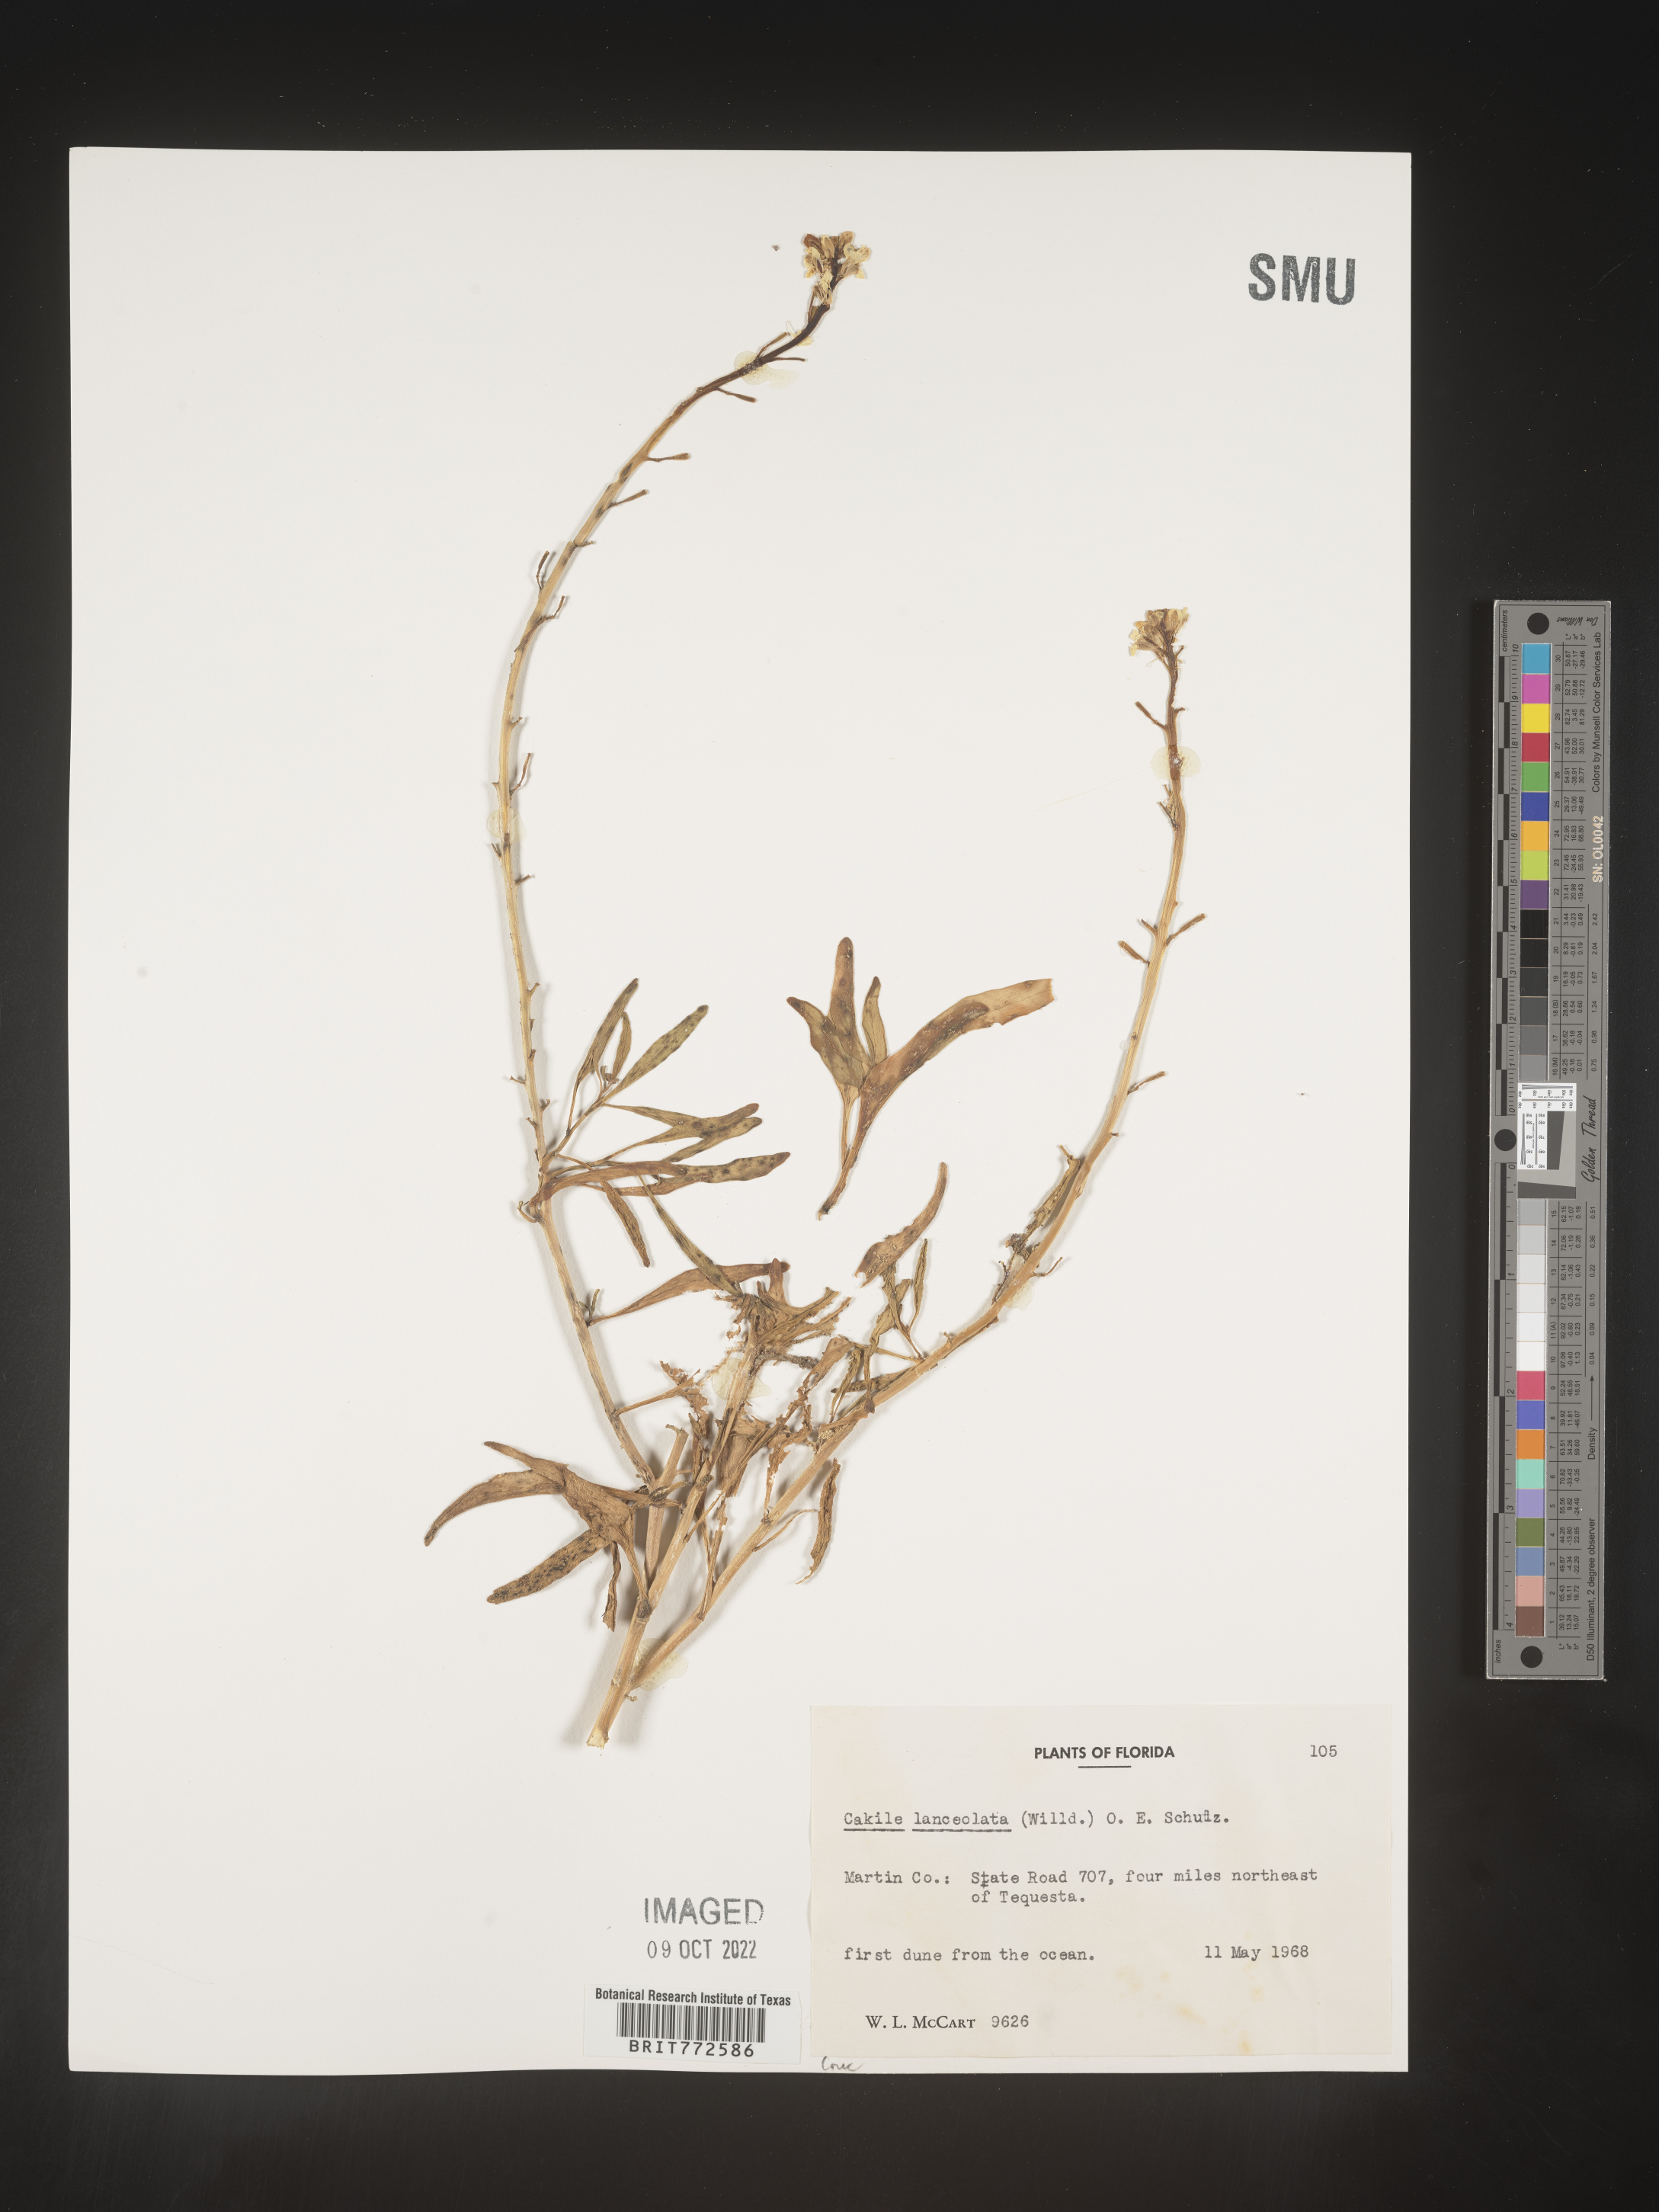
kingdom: Plantae
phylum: Tracheophyta
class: Magnoliopsida
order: Brassicales
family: Brassicaceae
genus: Cakile
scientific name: Cakile lanceolata
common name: Sea rocket
